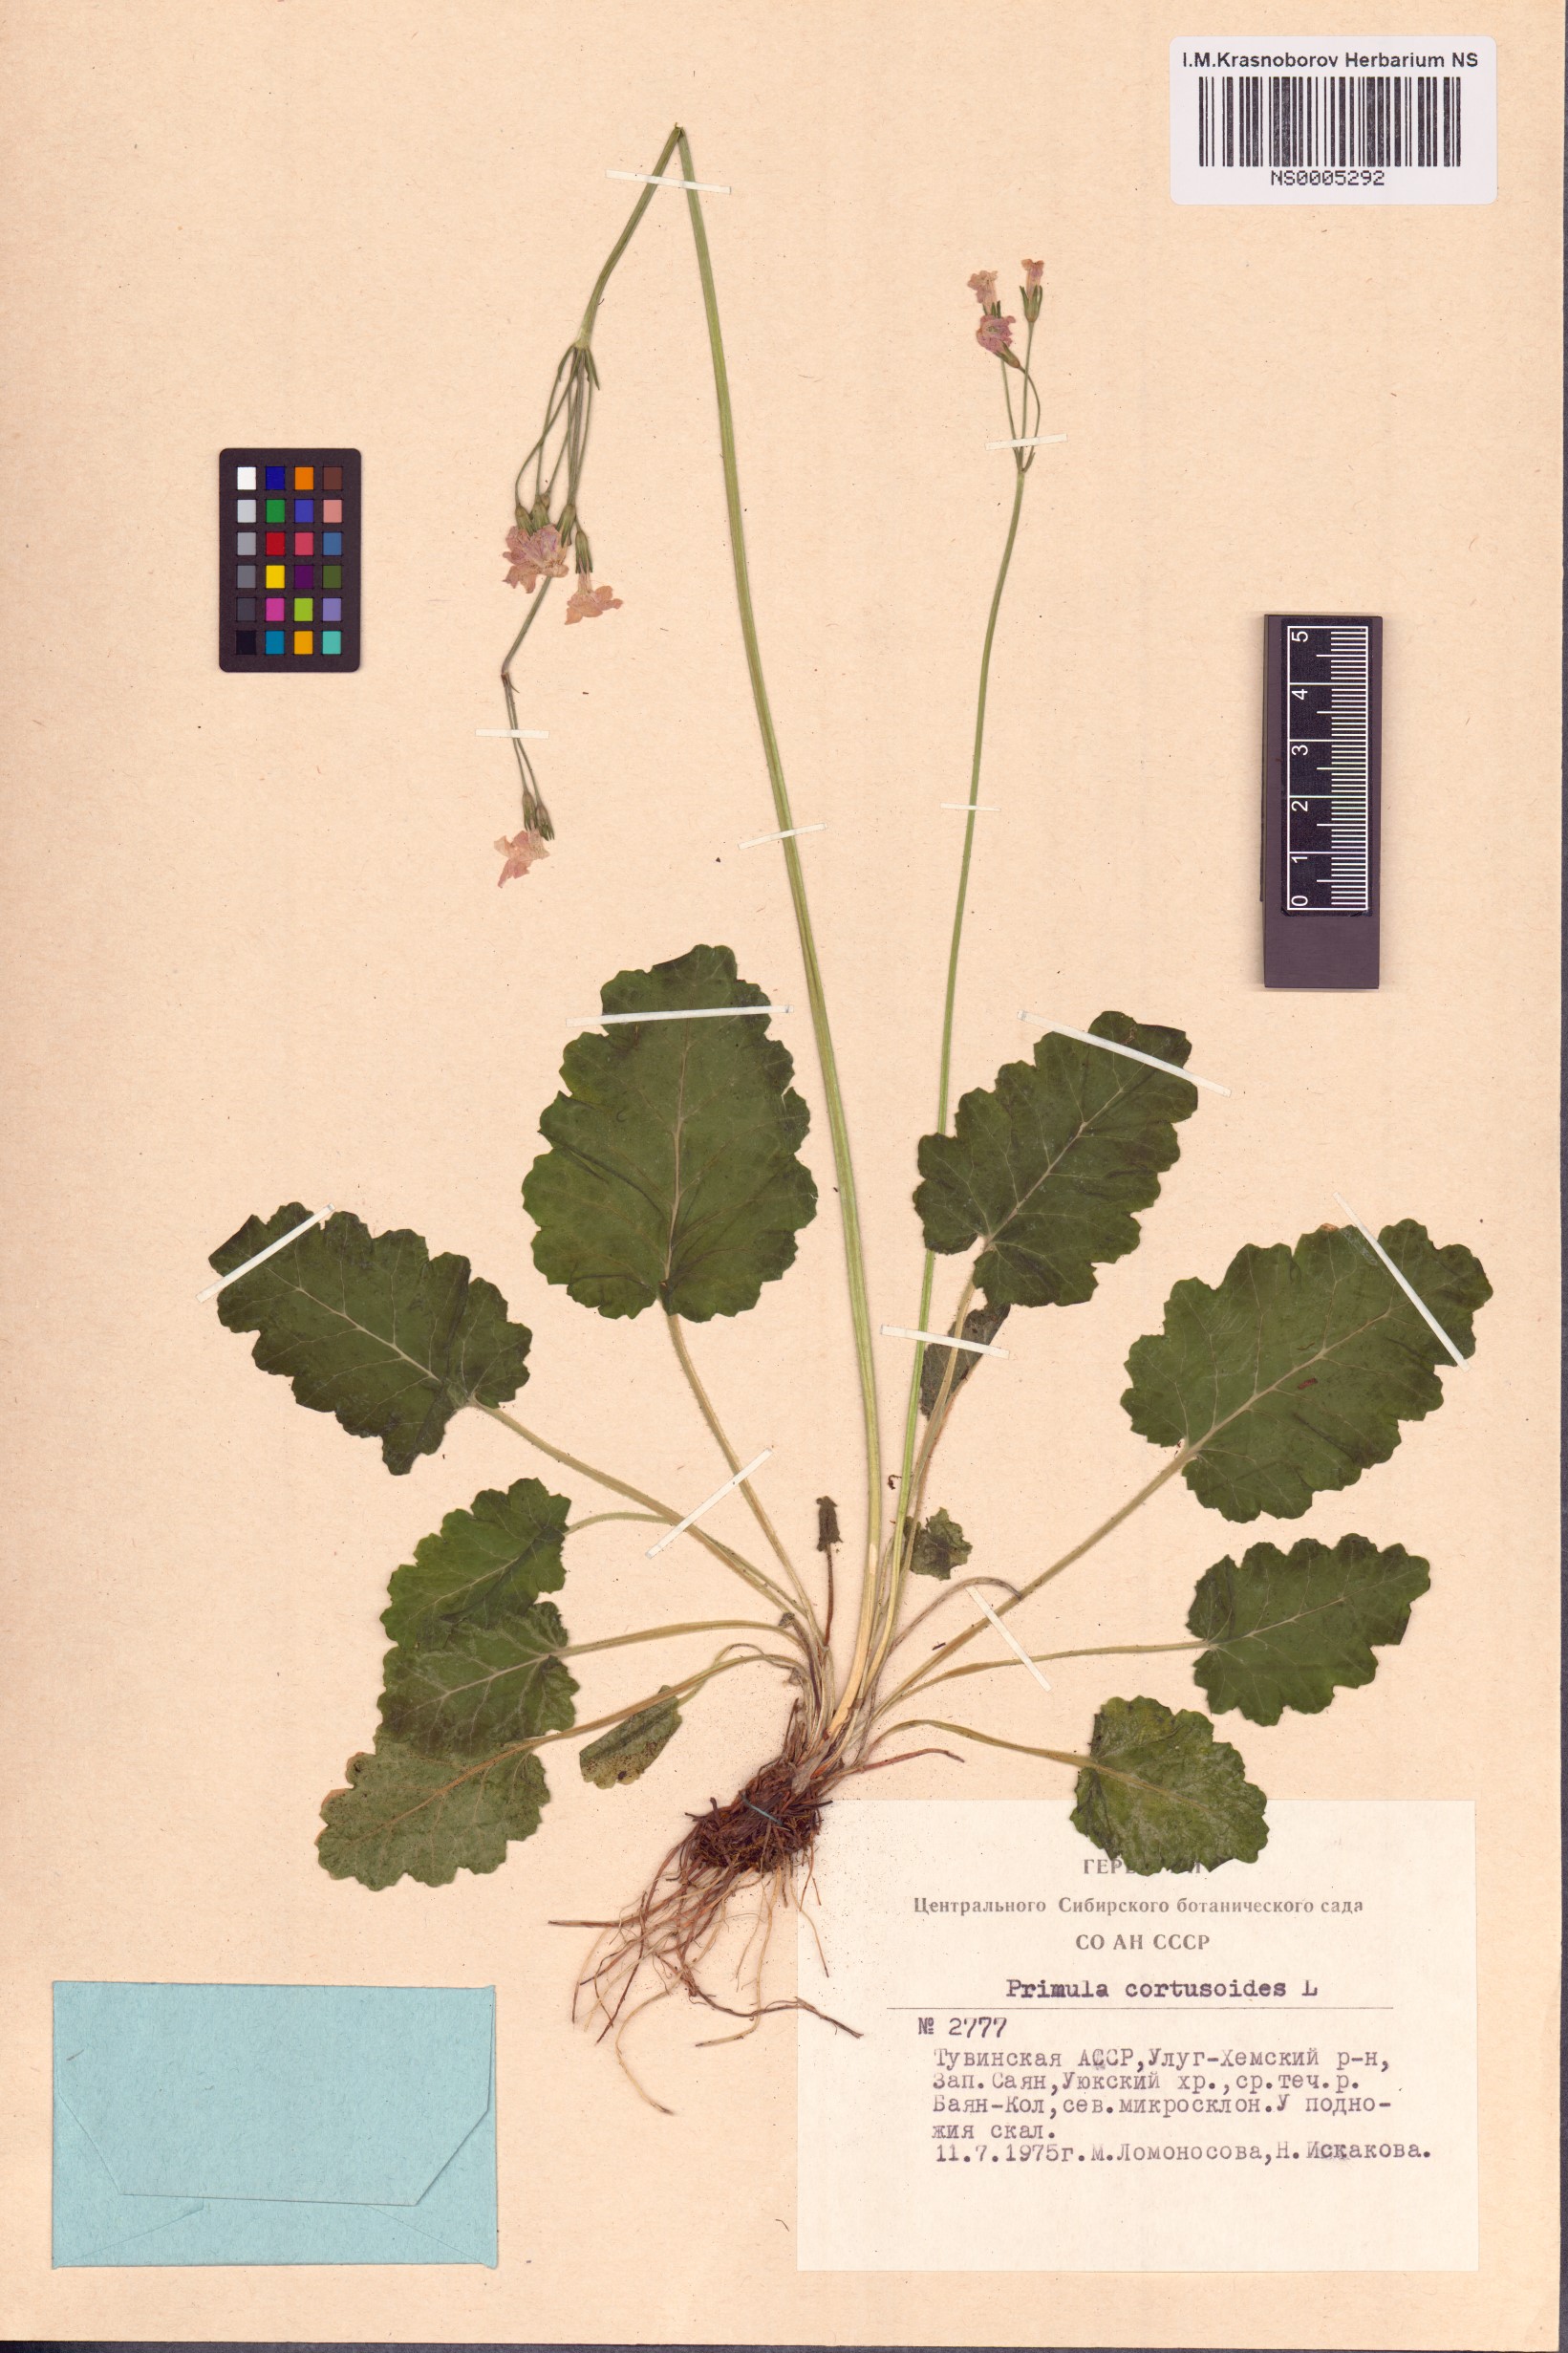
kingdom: Plantae
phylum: Tracheophyta
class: Magnoliopsida
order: Ericales
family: Primulaceae
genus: Primula
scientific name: Primula cortusoides
